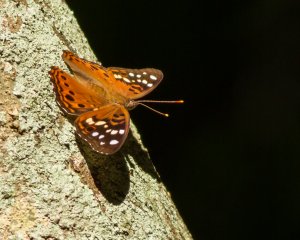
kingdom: Animalia
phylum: Arthropoda
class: Insecta
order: Lepidoptera
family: Nymphalidae
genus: Asterocampa
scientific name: Asterocampa celtis
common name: Hackberry Emperor
